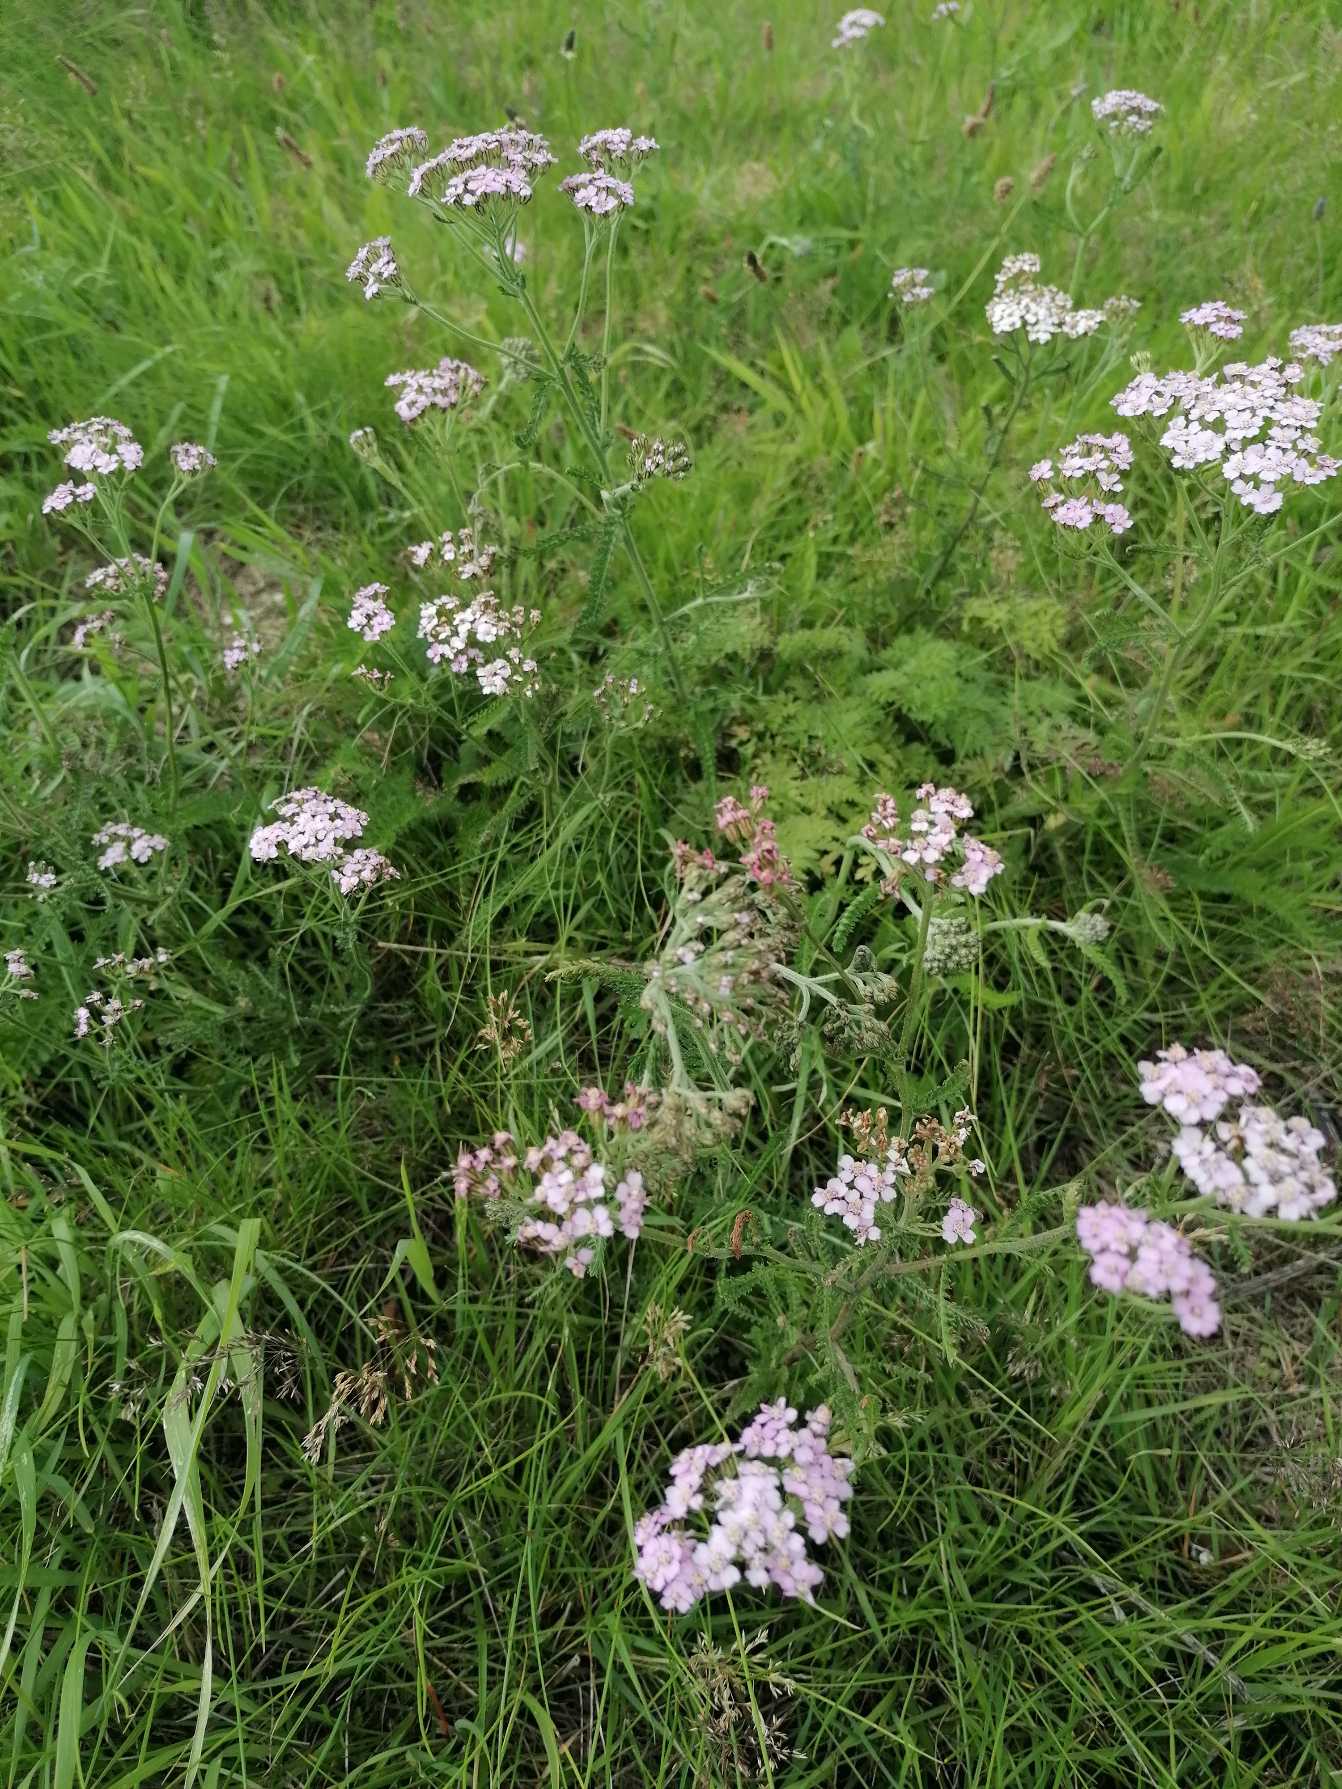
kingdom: Plantae
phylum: Tracheophyta
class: Magnoliopsida
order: Asterales
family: Asteraceae
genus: Achillea
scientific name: Achillea millefolium
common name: Almindelig røllike
